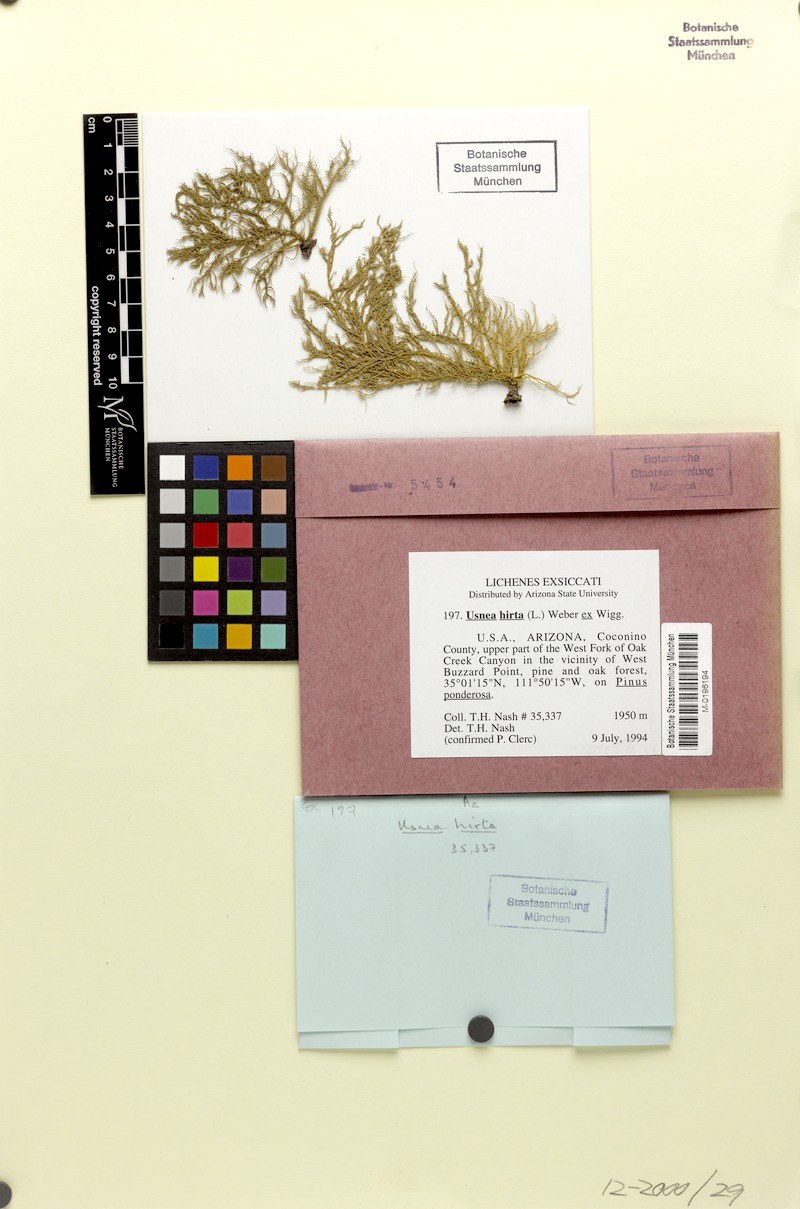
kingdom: Fungi
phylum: Ascomycota
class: Lecanoromycetes
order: Lecanorales
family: Parmeliaceae
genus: Usnea
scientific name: Usnea hirta
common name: Bristly beard lichen
